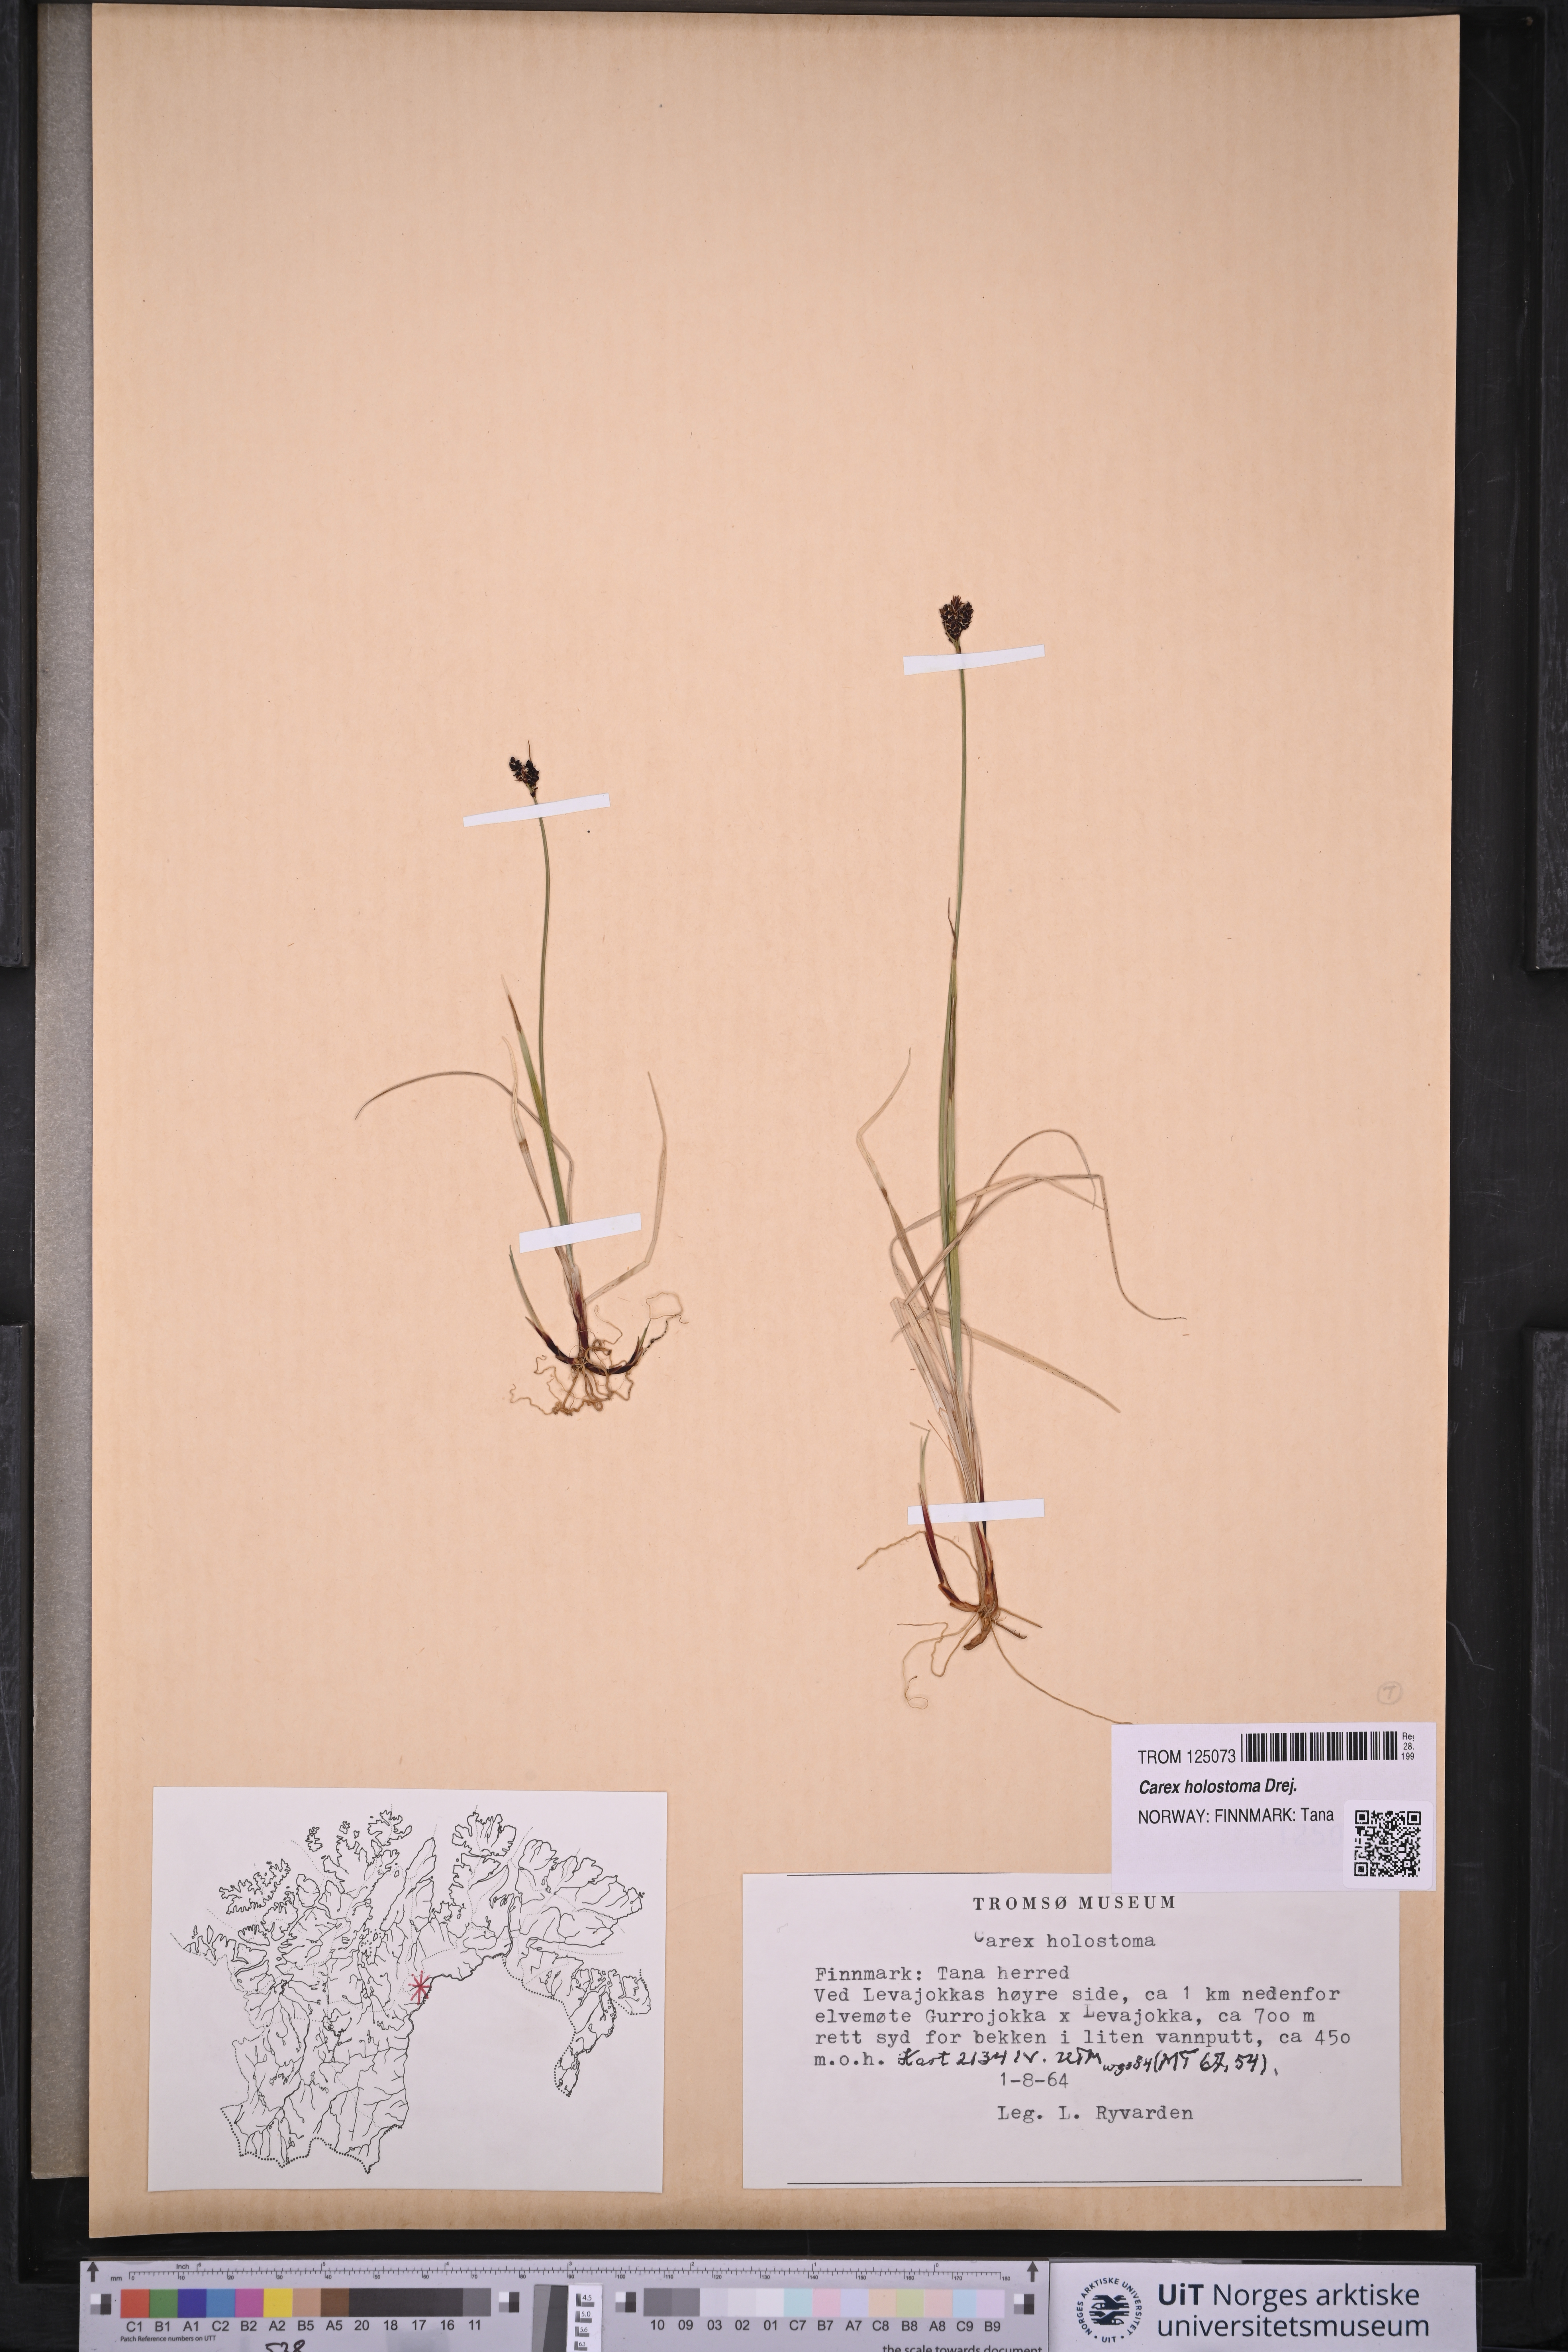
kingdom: Plantae
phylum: Tracheophyta
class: Liliopsida
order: Poales
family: Cyperaceae
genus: Carex
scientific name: Carex holostoma
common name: Arctic marsh sedge
